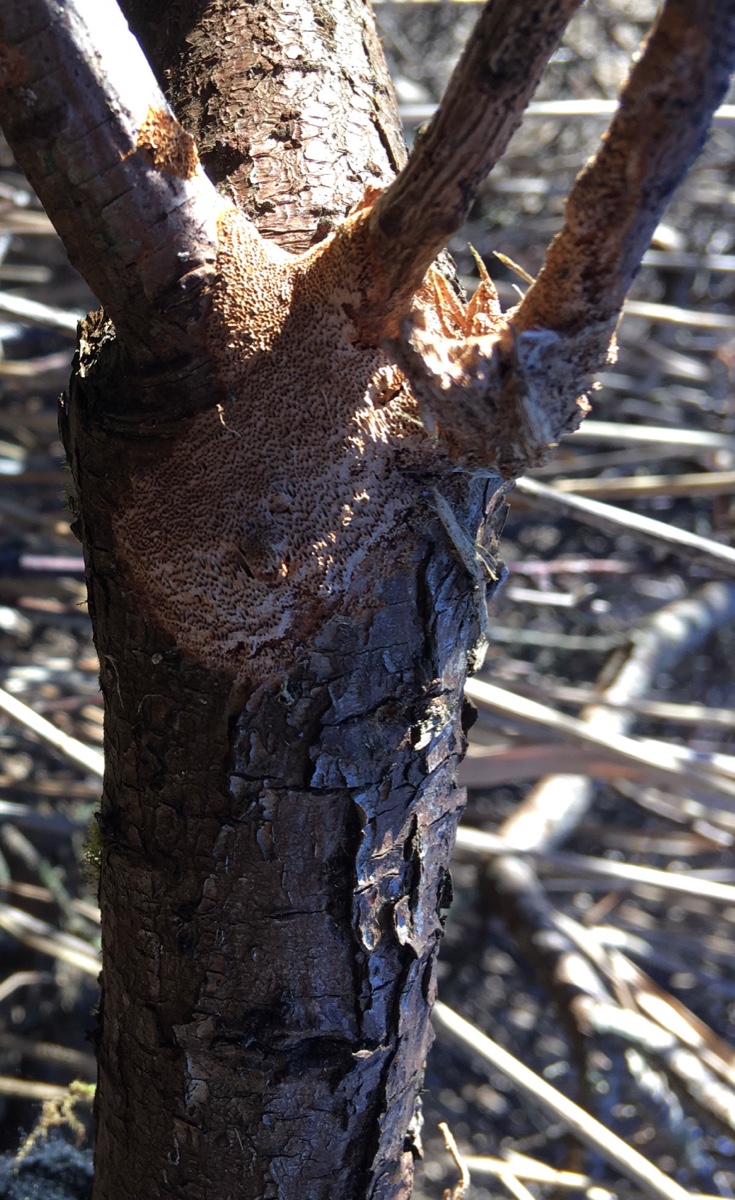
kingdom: Fungi
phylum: Basidiomycota
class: Agaricomycetes
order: Hymenochaetales
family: Hymenochaetaceae
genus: Fuscoporia
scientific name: Fuscoporia contigua
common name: grov ildporesvamp
